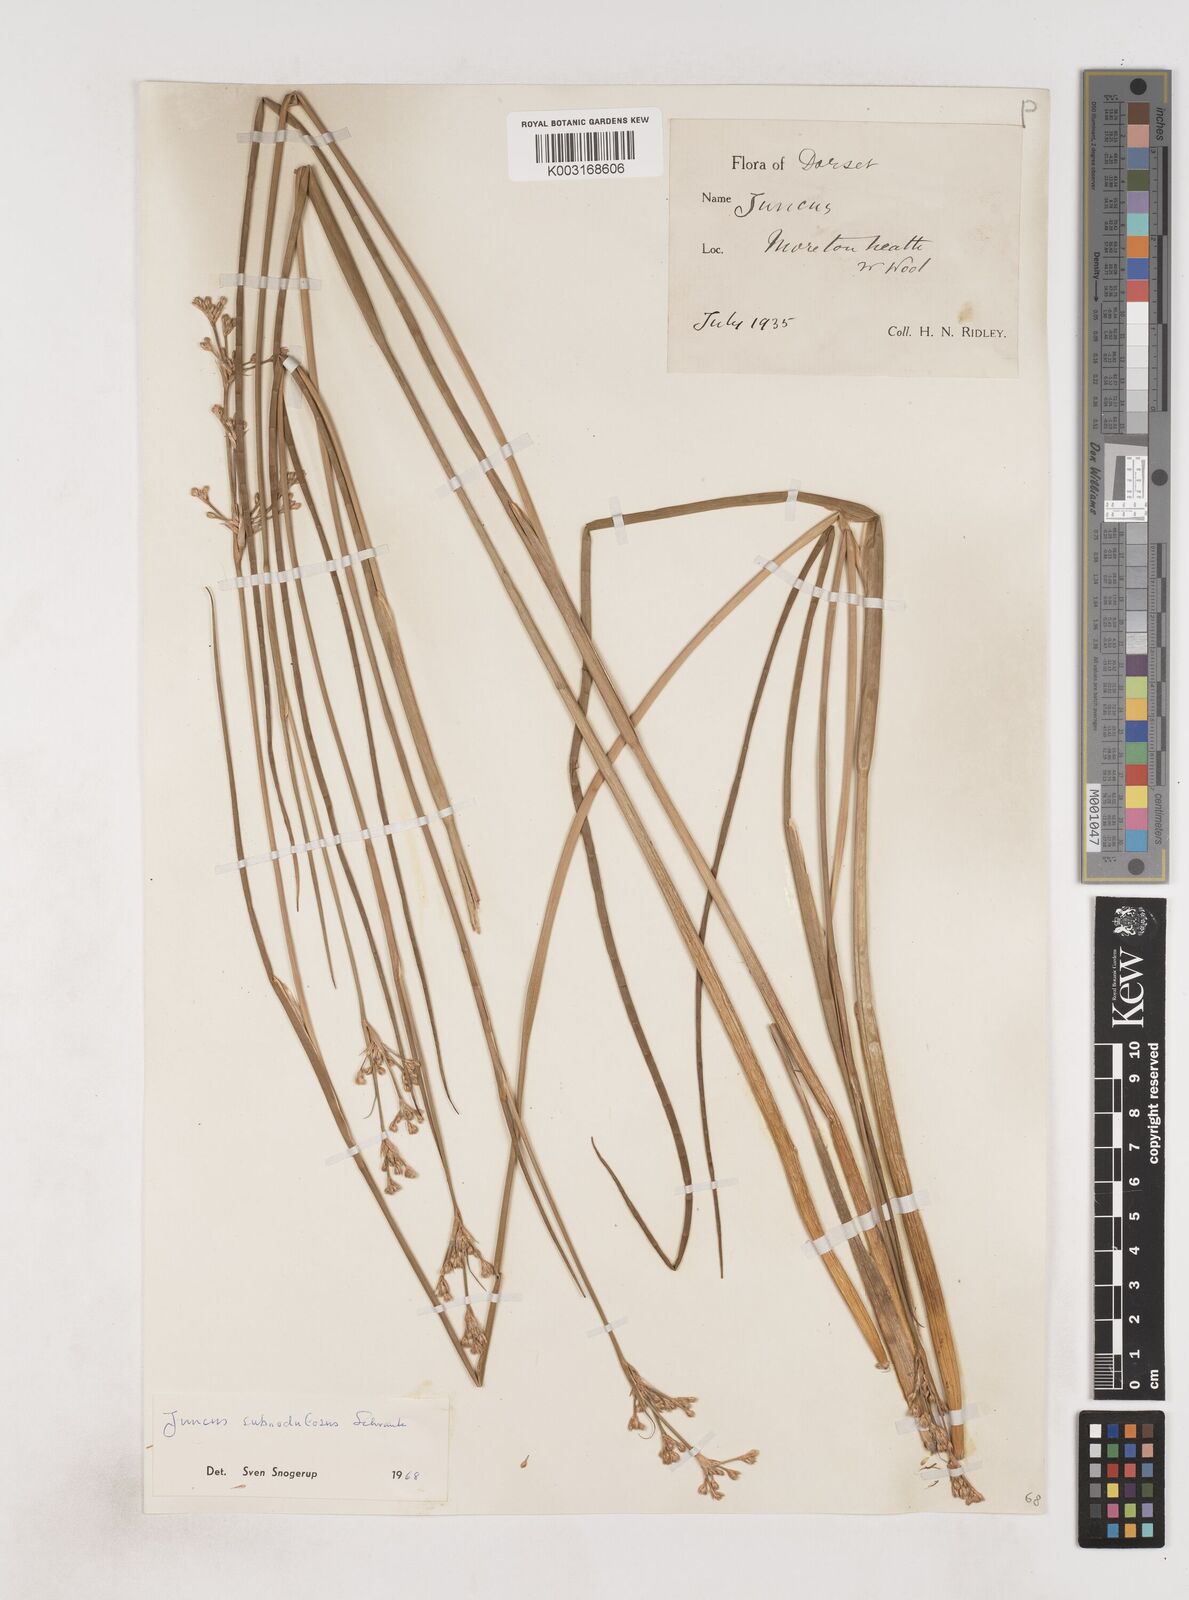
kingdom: Plantae
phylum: Tracheophyta
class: Liliopsida
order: Poales
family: Juncaceae
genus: Juncus
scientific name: Juncus subnodulosus
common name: Blunt-flowered rush
